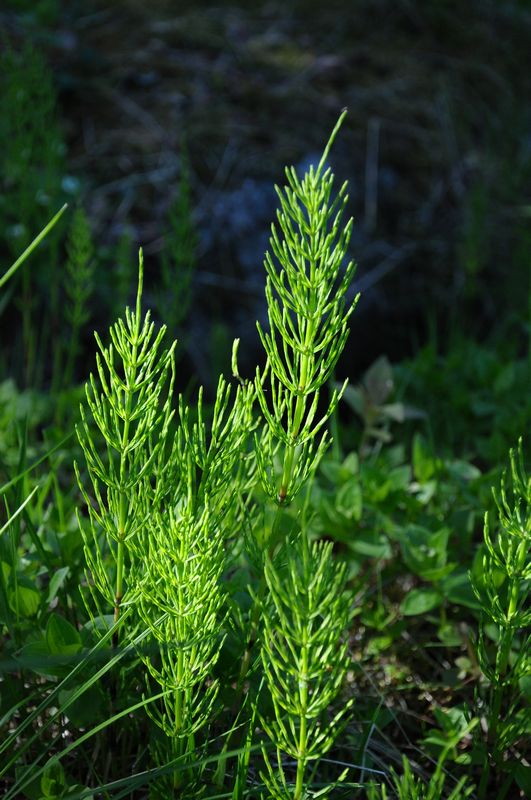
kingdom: Plantae
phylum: Tracheophyta
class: Polypodiopsida
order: Equisetales
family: Equisetaceae
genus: Equisetum
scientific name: Equisetum arvense
